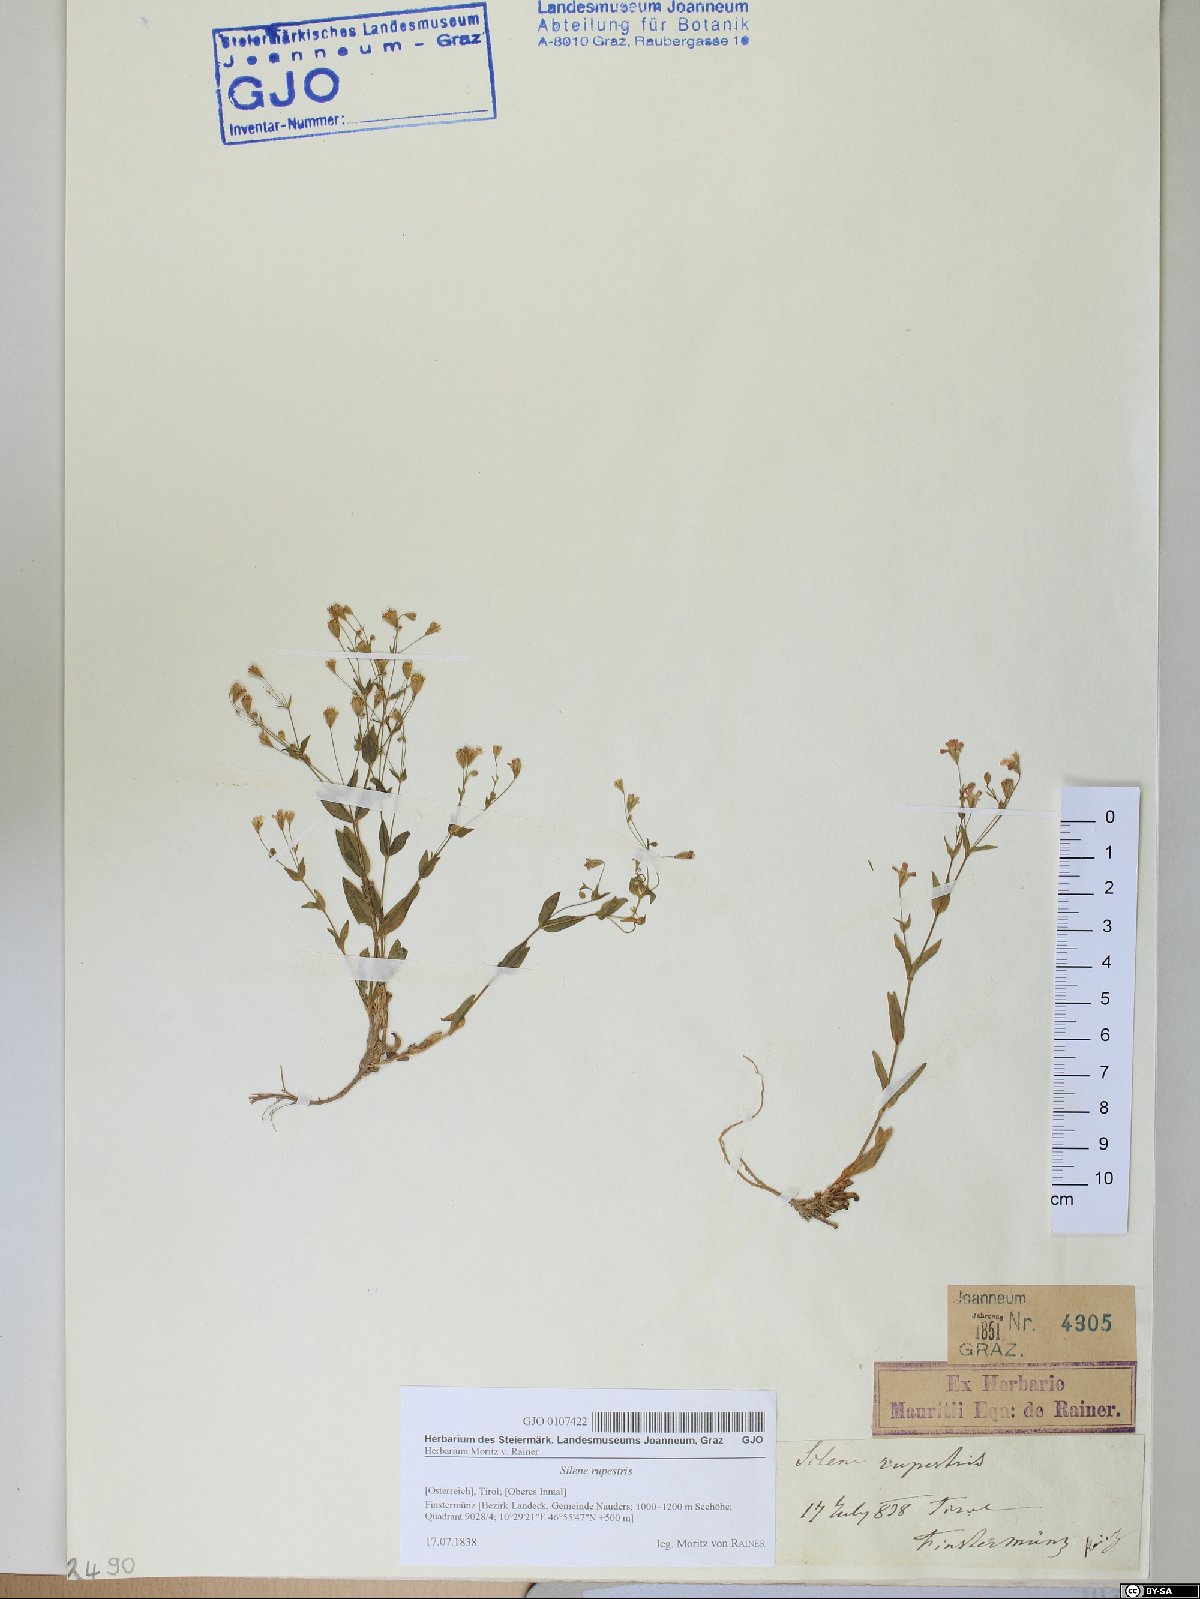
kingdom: Plantae
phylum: Tracheophyta
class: Magnoliopsida
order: Caryophyllales
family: Caryophyllaceae
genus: Atocion
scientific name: Atocion rupestre
